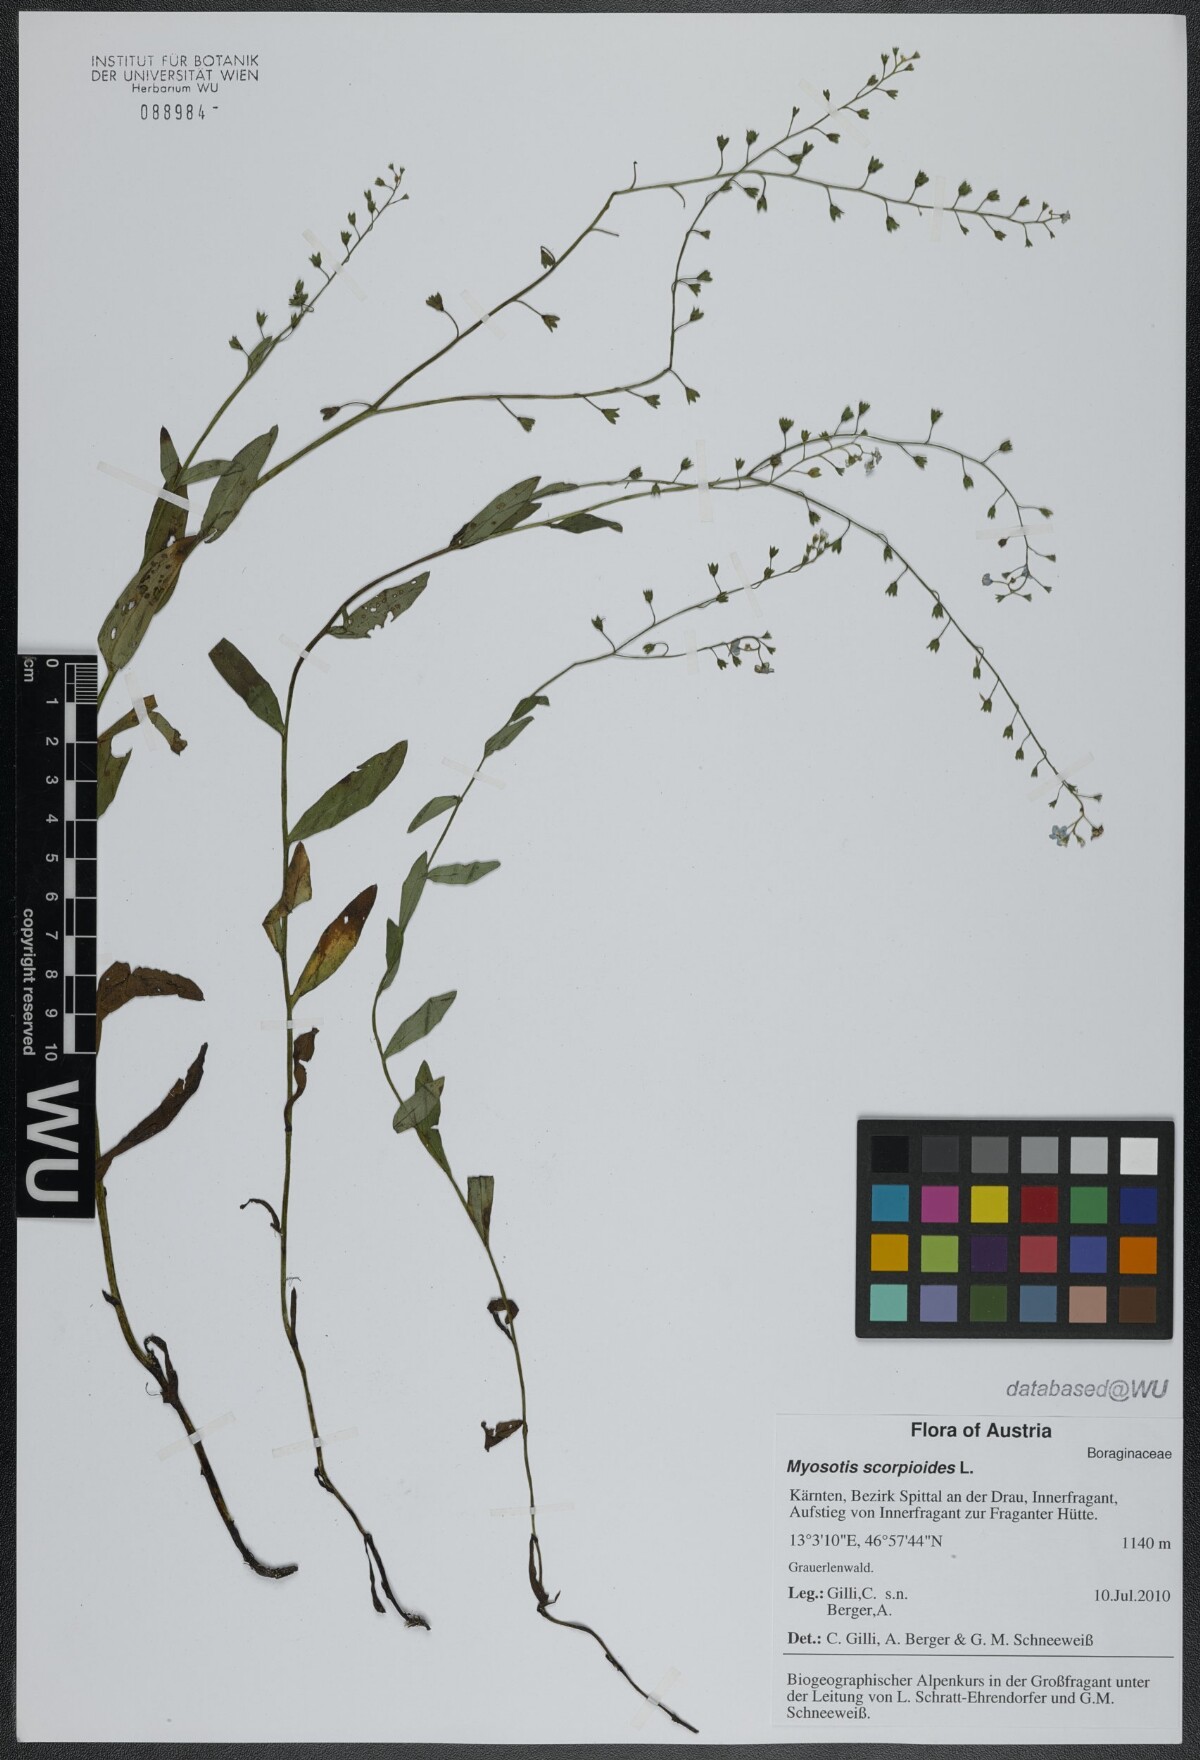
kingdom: Plantae
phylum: Tracheophyta
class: Magnoliopsida
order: Boraginales
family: Boraginaceae
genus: Myosotis
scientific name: Myosotis scorpioides
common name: Water forget-me-not
